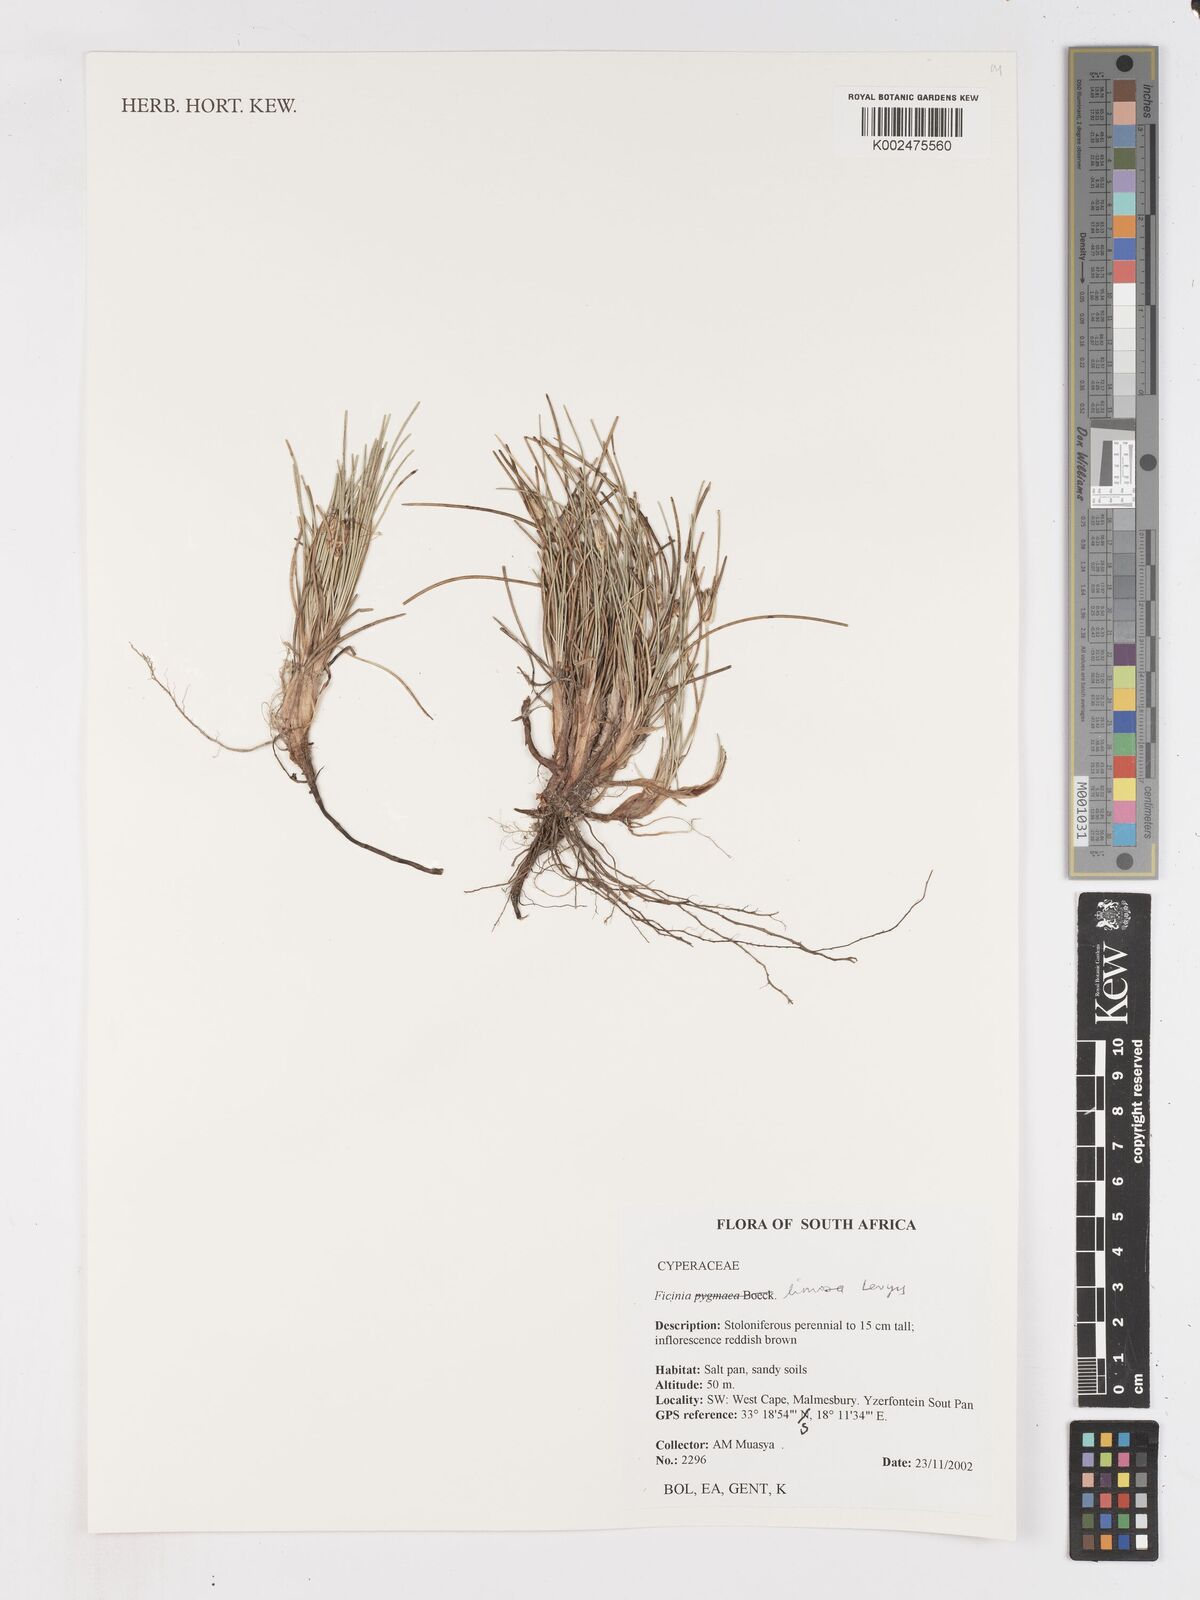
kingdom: Plantae
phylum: Tracheophyta
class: Liliopsida
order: Poales
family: Cyperaceae
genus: Ficinia
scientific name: Ficinia pygmaea
